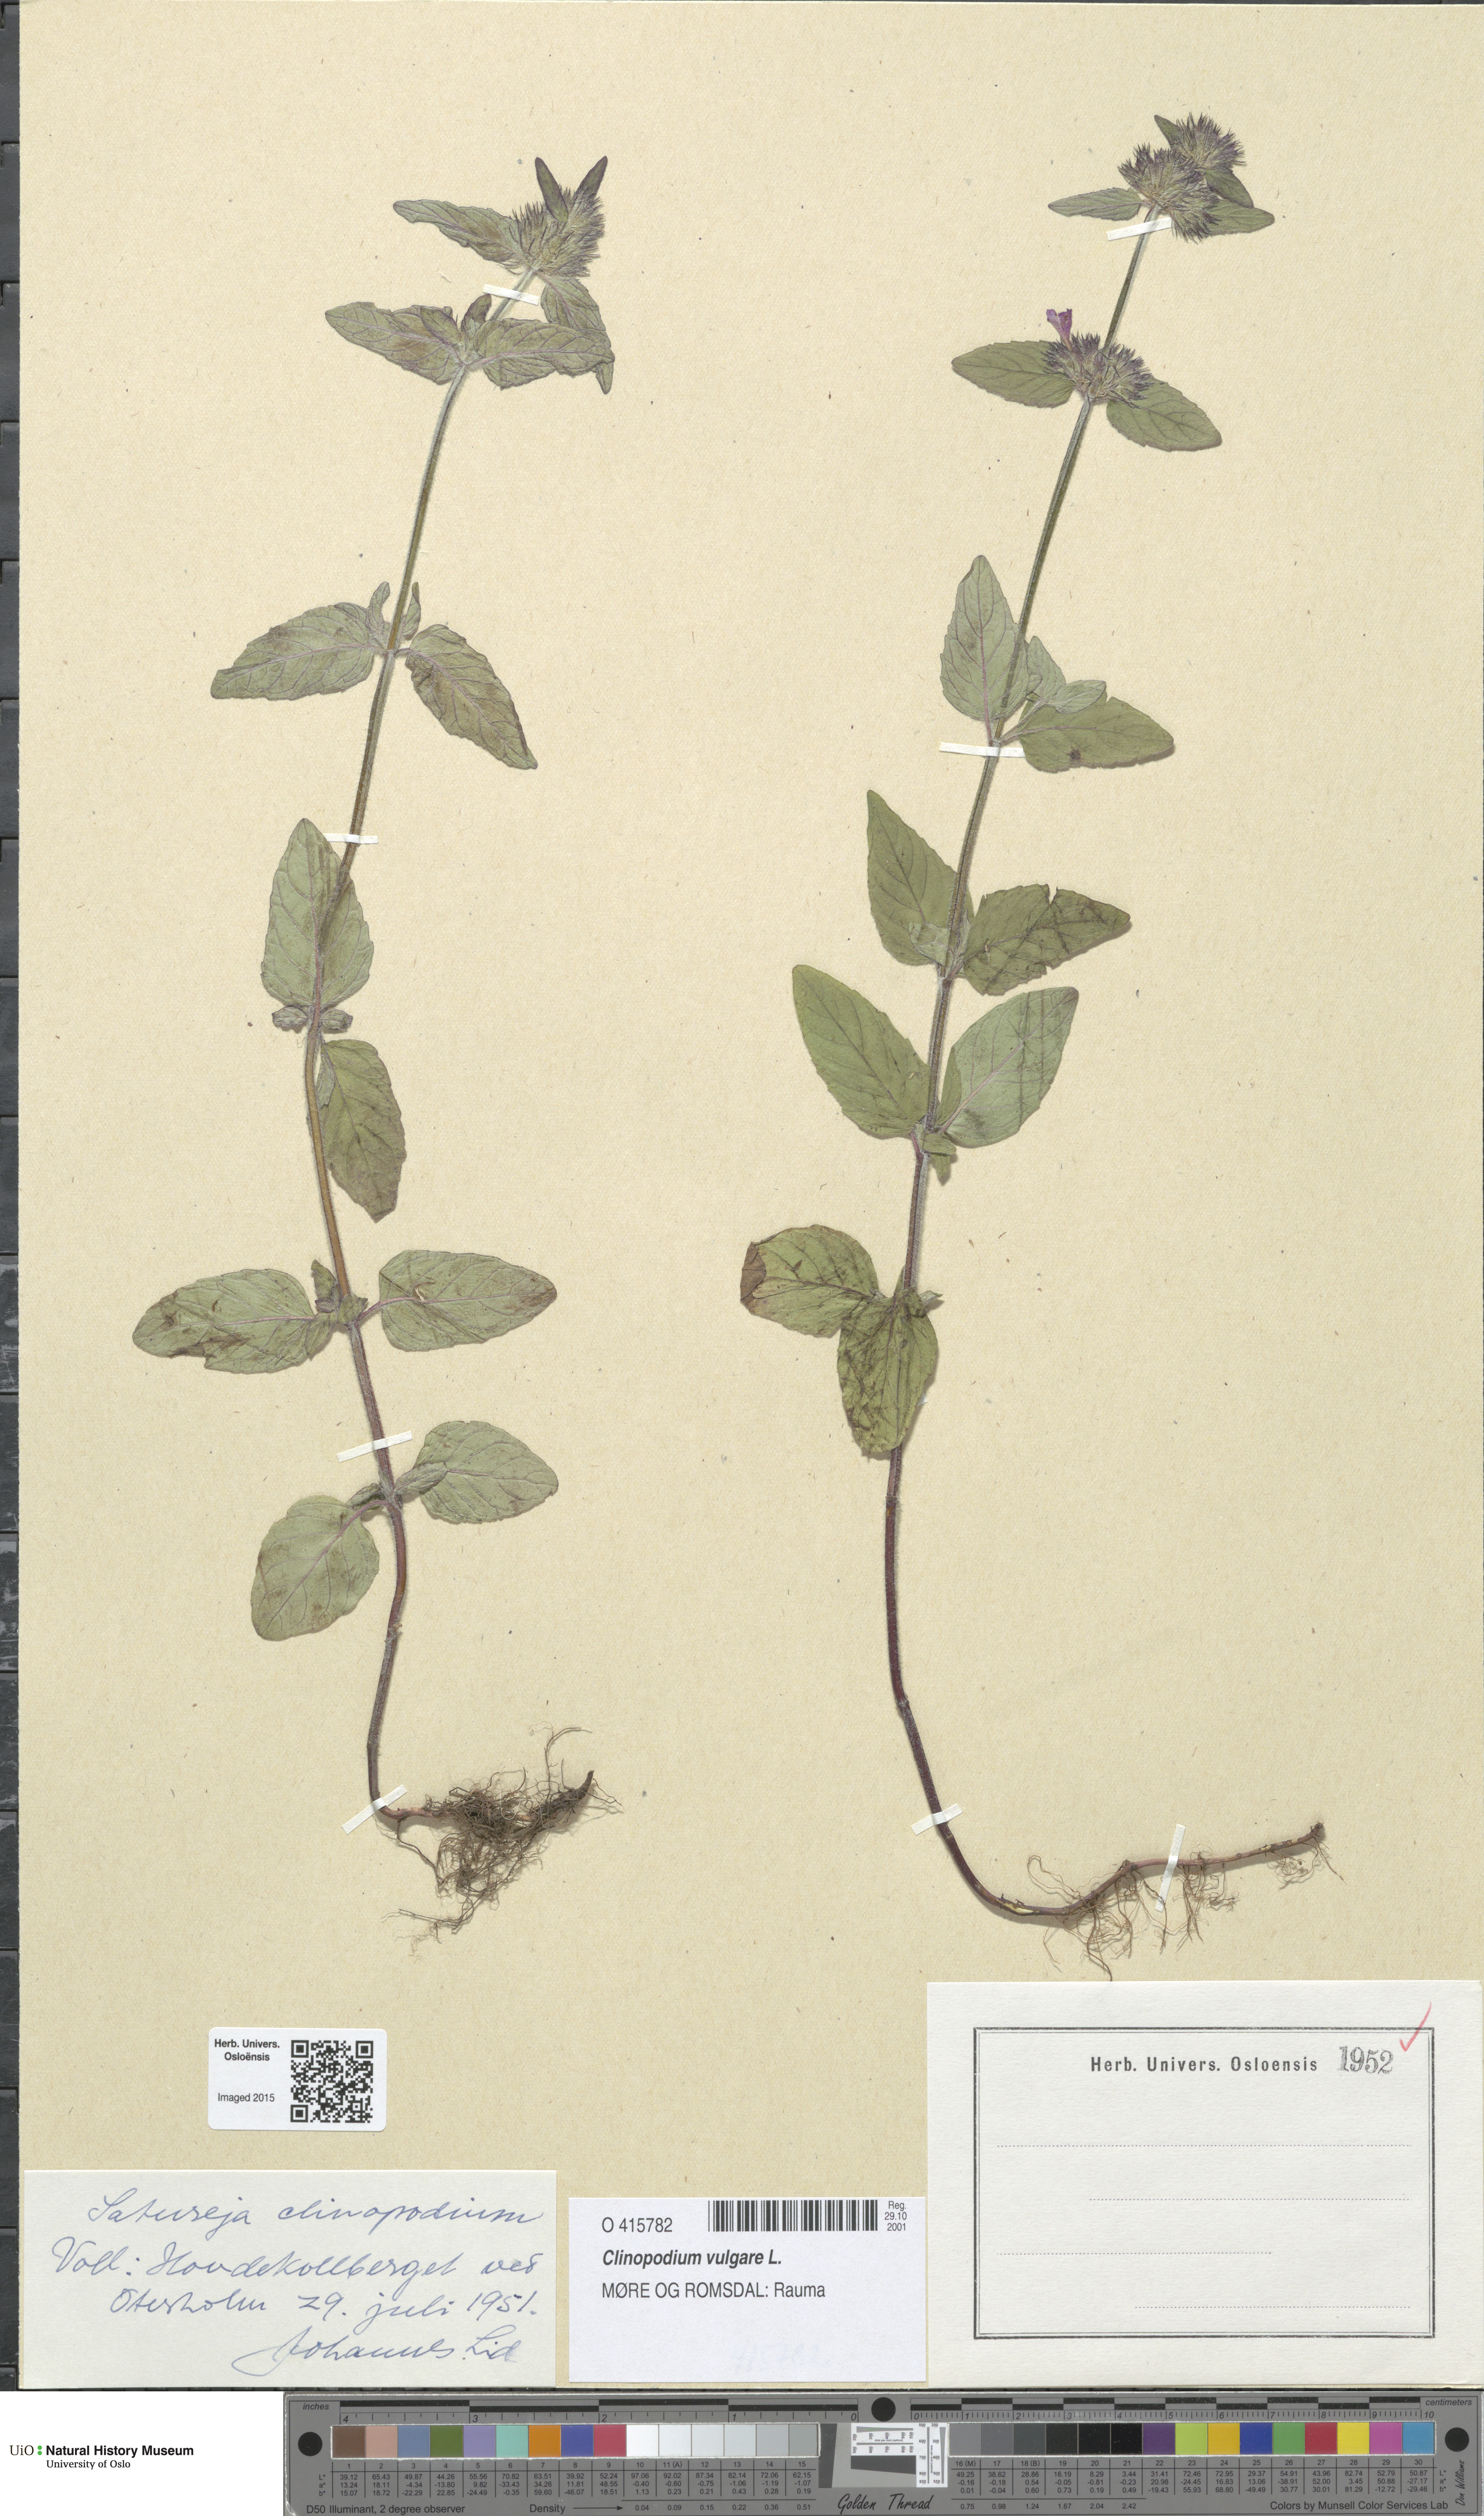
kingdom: Plantae
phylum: Tracheophyta
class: Magnoliopsida
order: Lamiales
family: Lamiaceae
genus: Clinopodium
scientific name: Clinopodium vulgare
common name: Wild basil
